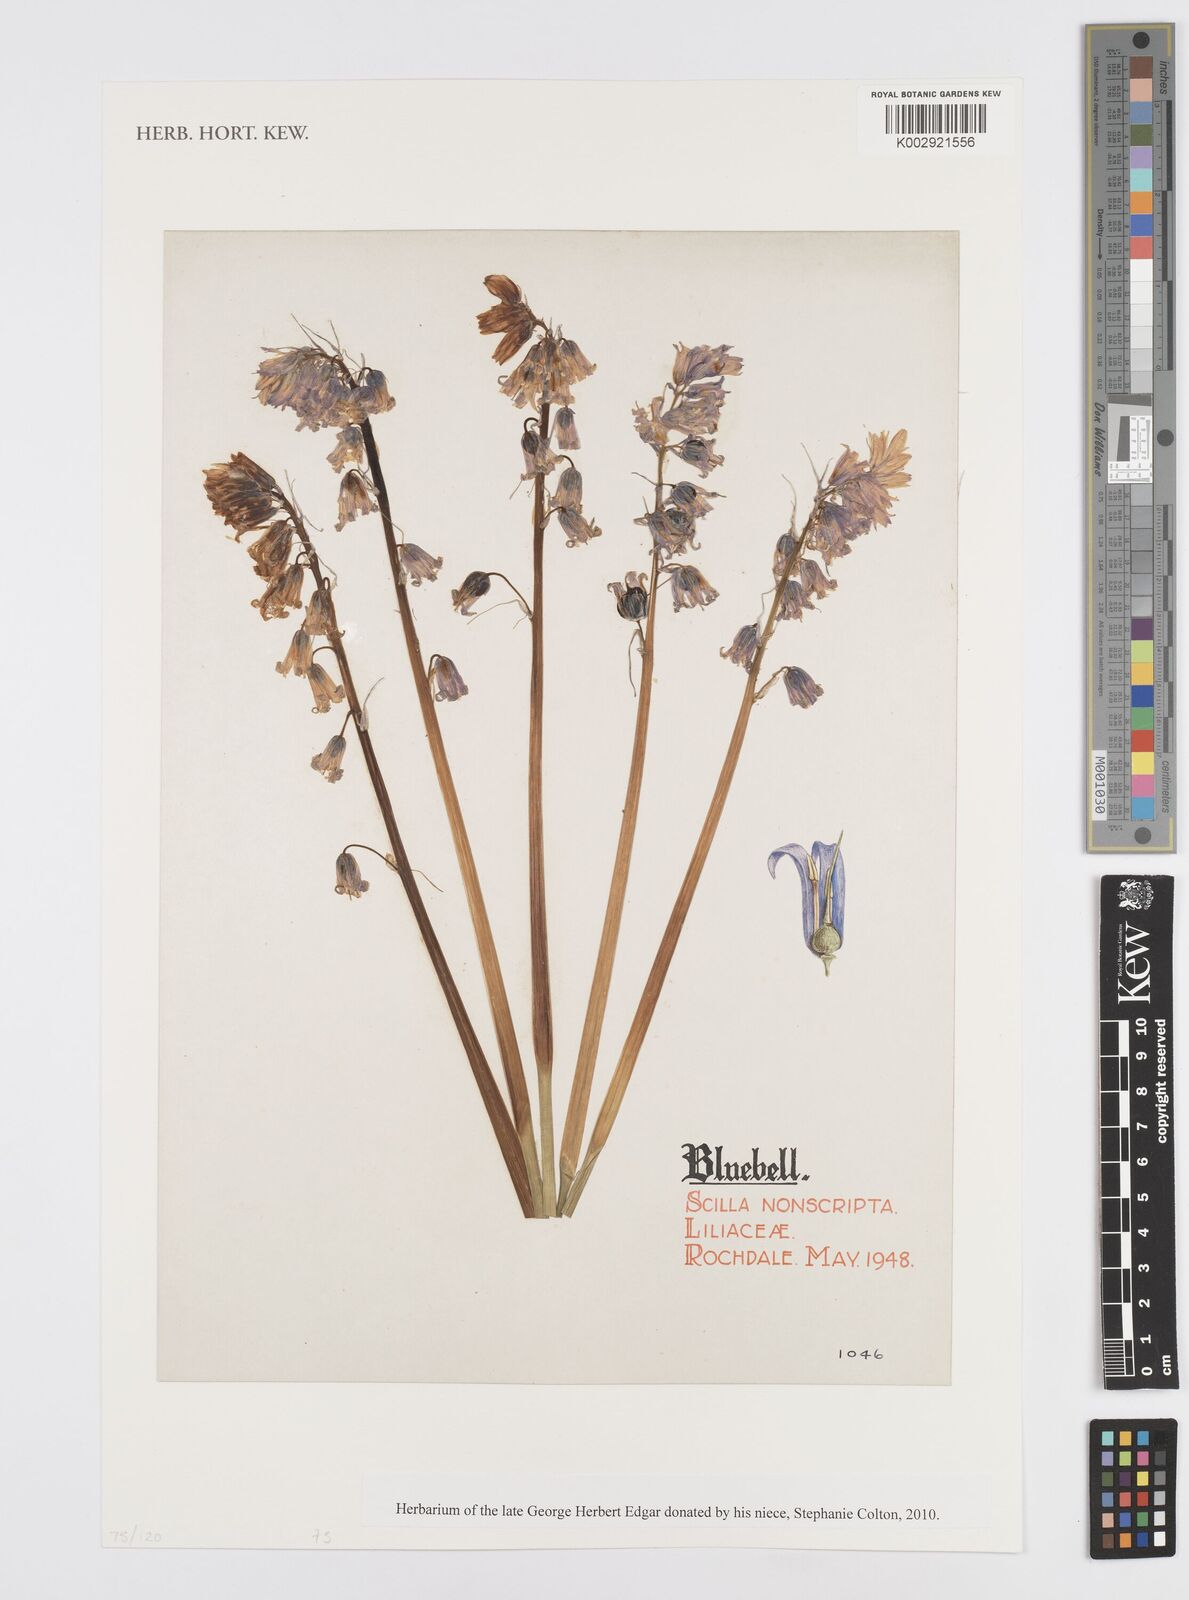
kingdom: Plantae
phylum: Tracheophyta
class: Liliopsida
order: Asparagales
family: Asparagaceae
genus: Hyacinthoides
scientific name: Hyacinthoides non-scripta
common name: Bluebell
